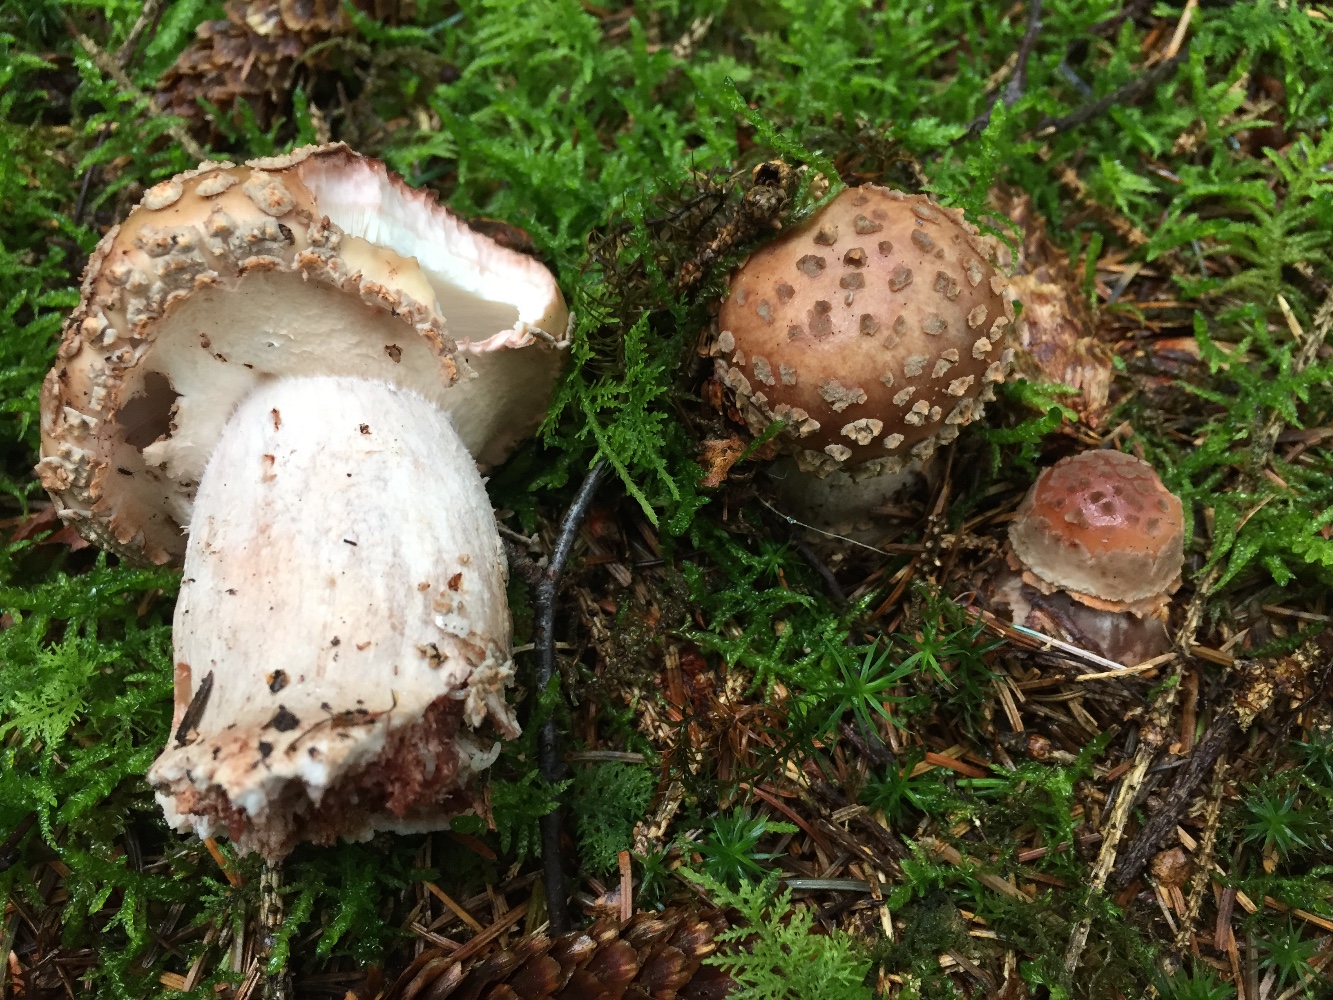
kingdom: Fungi
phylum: Basidiomycota
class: Agaricomycetes
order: Agaricales
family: Amanitaceae
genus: Amanita
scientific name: Amanita rubescens
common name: rødmende fluesvamp
